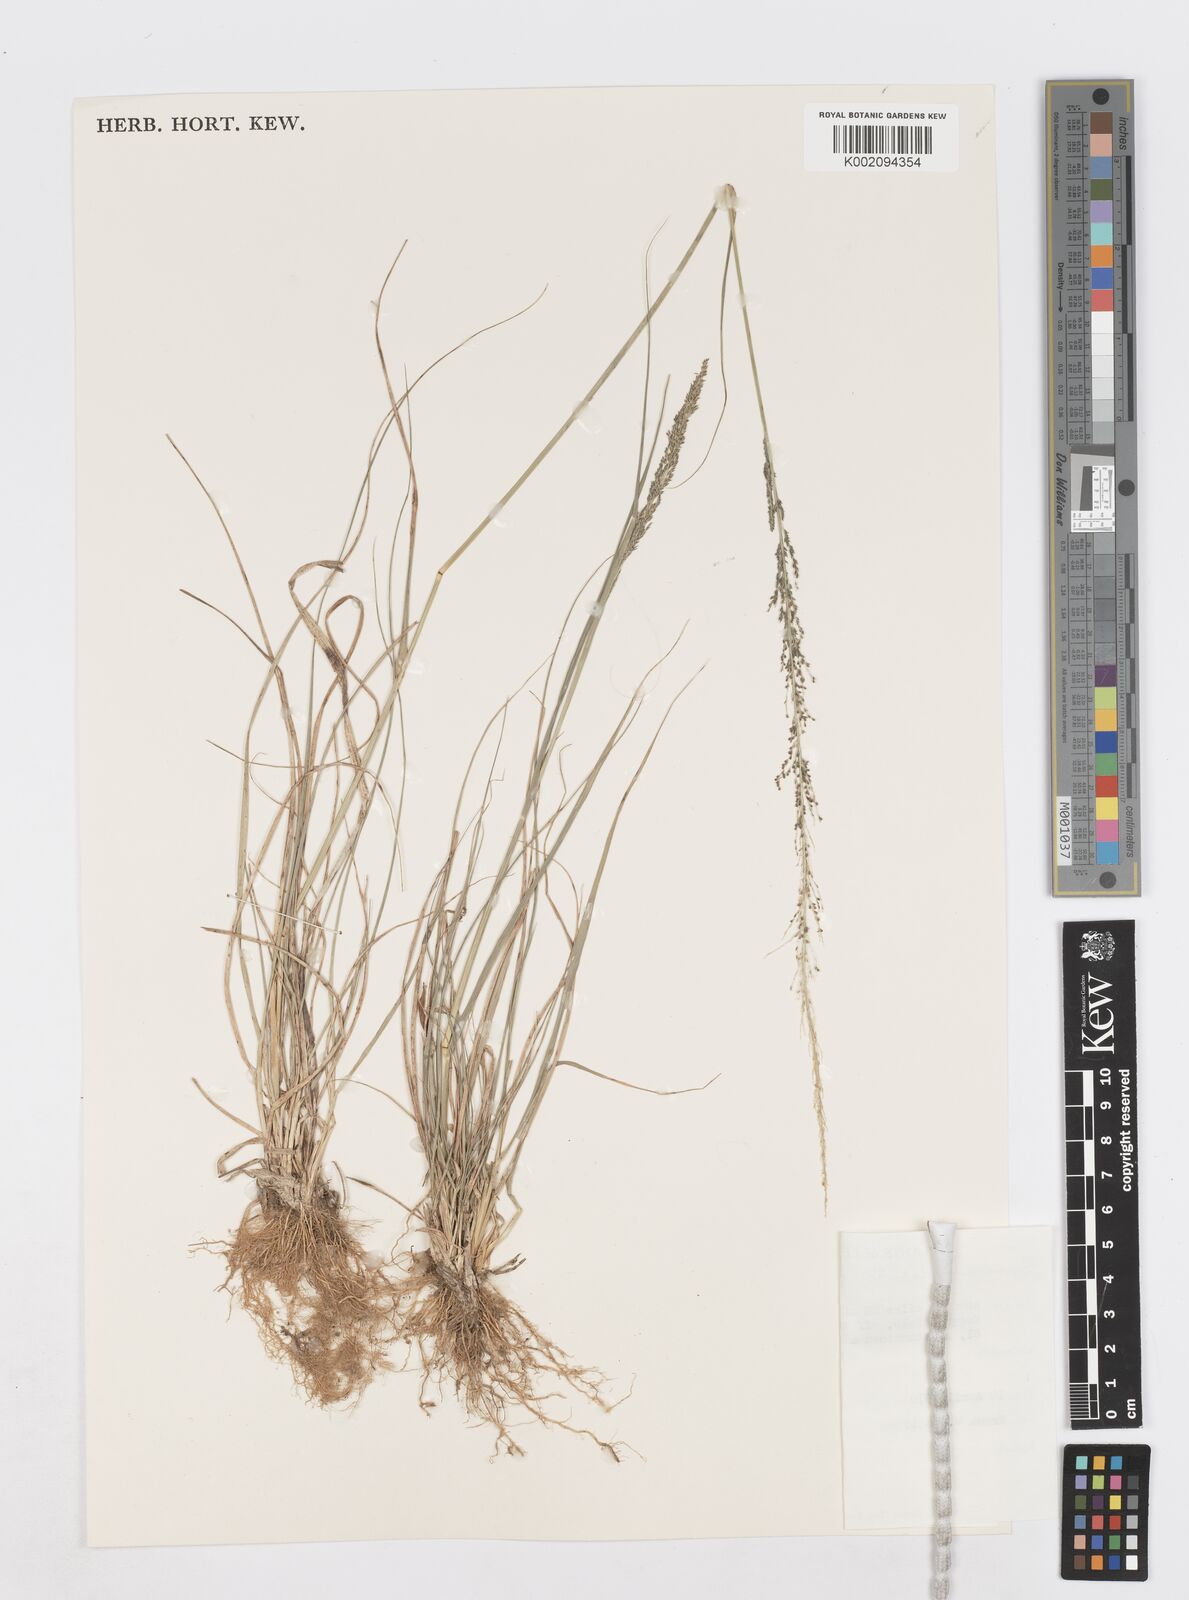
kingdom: Plantae
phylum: Tracheophyta
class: Liliopsida
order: Poales
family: Poaceae
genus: Sporobolus
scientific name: Sporobolus diandrus
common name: Tussock dropseed
